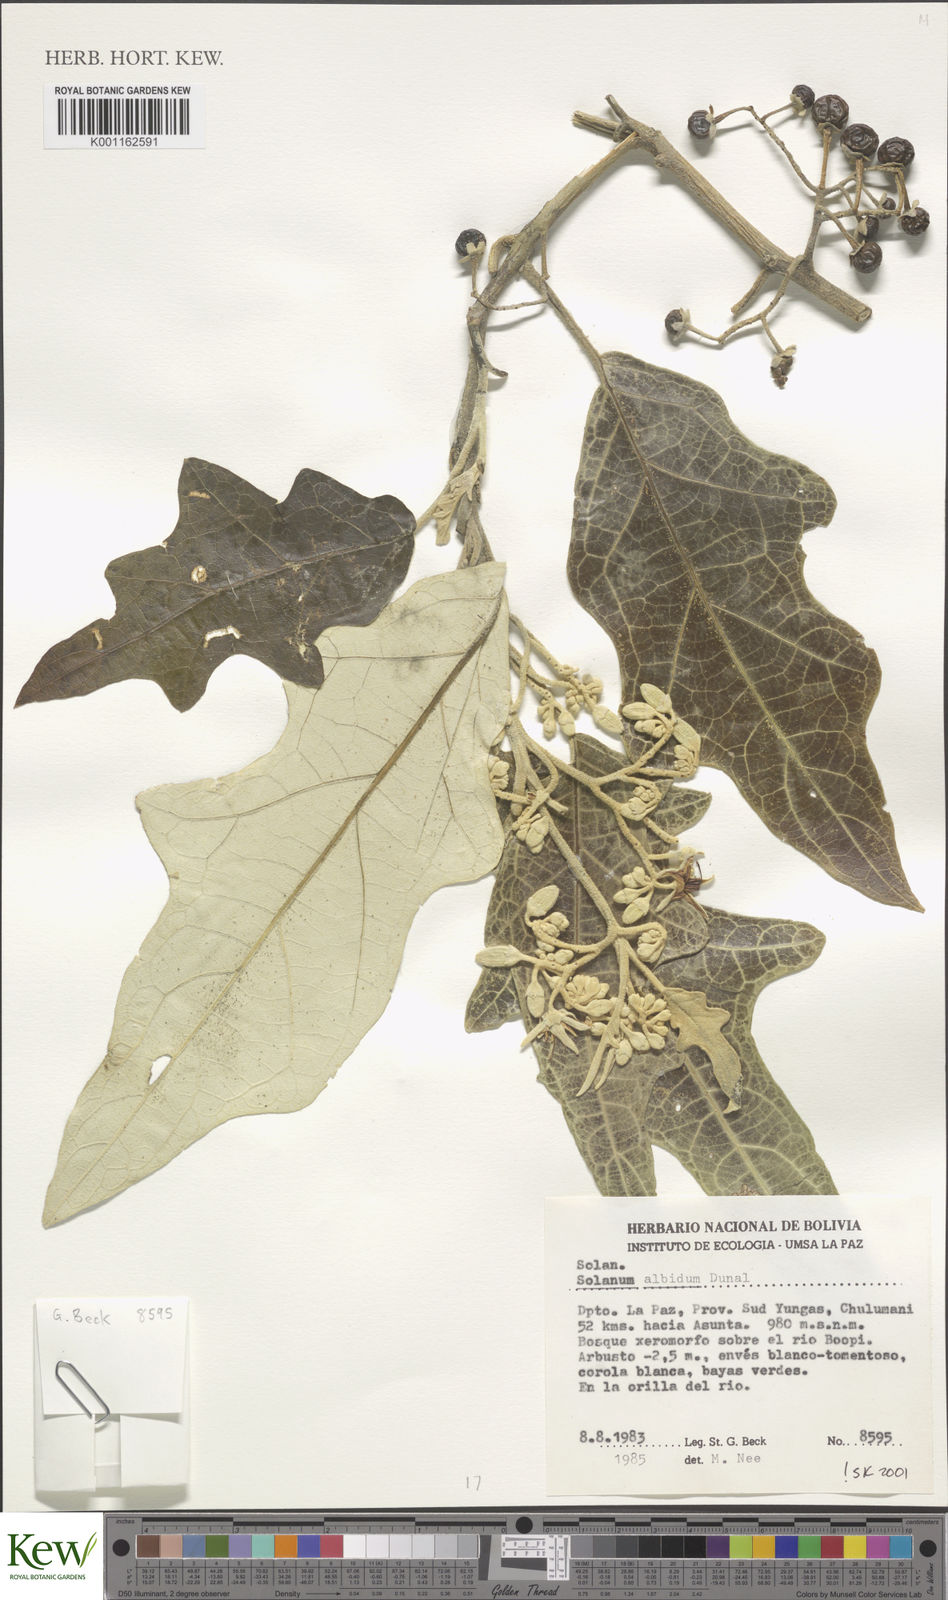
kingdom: Plantae
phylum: Tracheophyta
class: Magnoliopsida
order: Solanales
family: Solanaceae
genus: Solanum
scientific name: Solanum albidum
